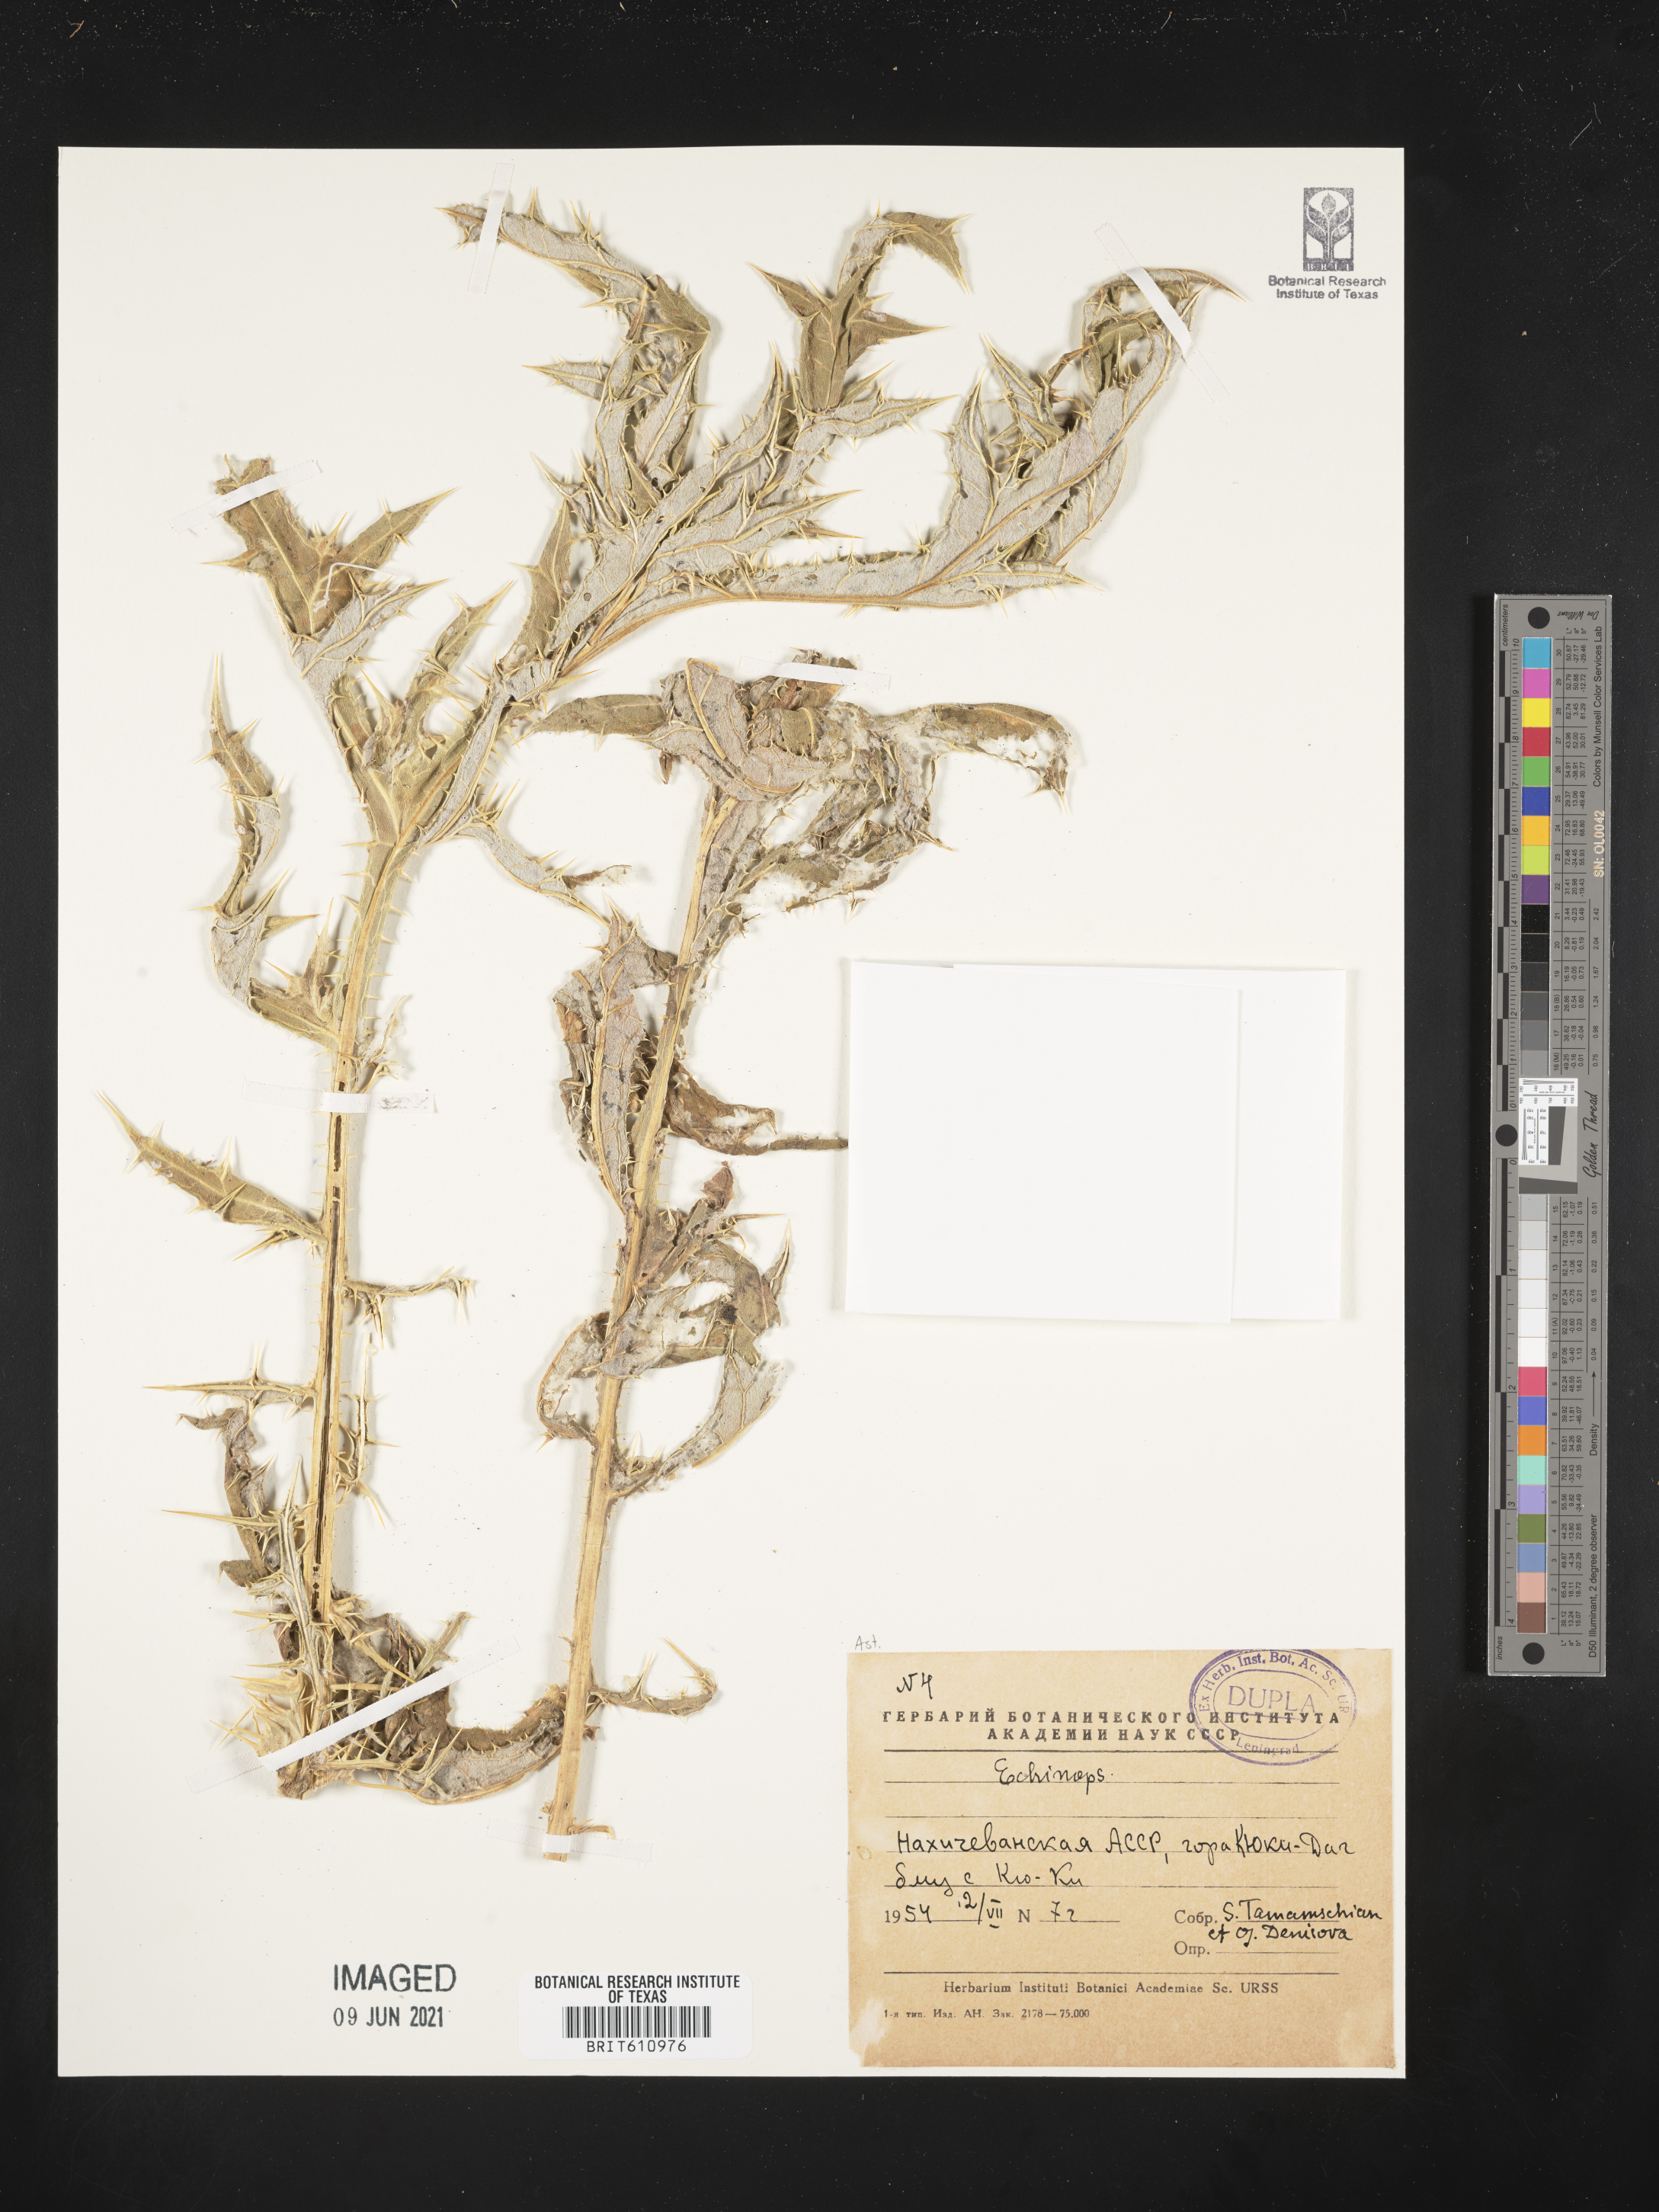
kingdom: Plantae
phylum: Tracheophyta
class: Magnoliopsida
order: Asterales
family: Asteraceae
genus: Echinops
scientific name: Echinops
